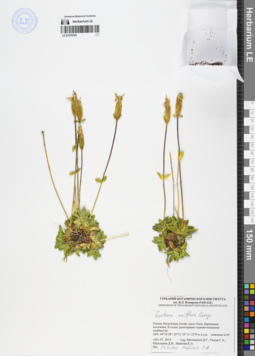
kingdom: Plantae
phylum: Tracheophyta
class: Magnoliopsida
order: Gentianales
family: Gentianaceae
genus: Gentiana
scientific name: Gentiana uniflora
